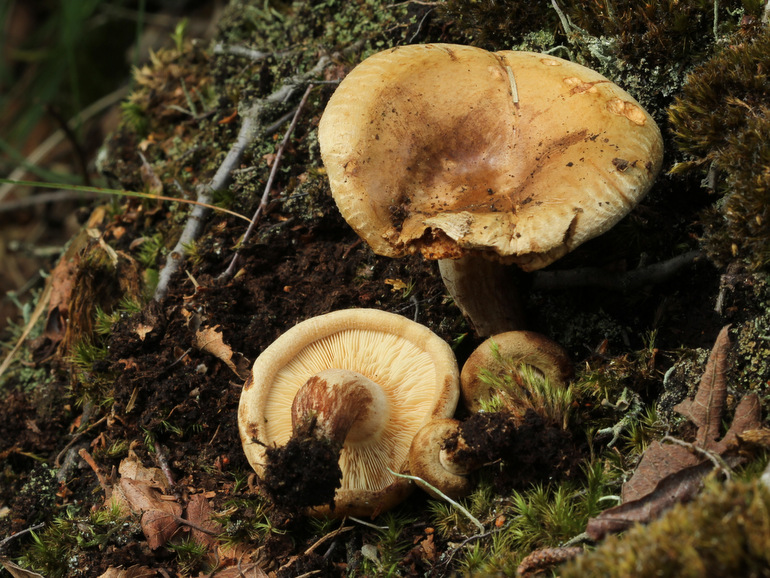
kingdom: Fungi
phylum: Basidiomycota
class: Agaricomycetes
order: Boletales
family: Paxillaceae
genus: Paxillus
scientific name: Paxillus involutus
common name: almindelig netbladhat
